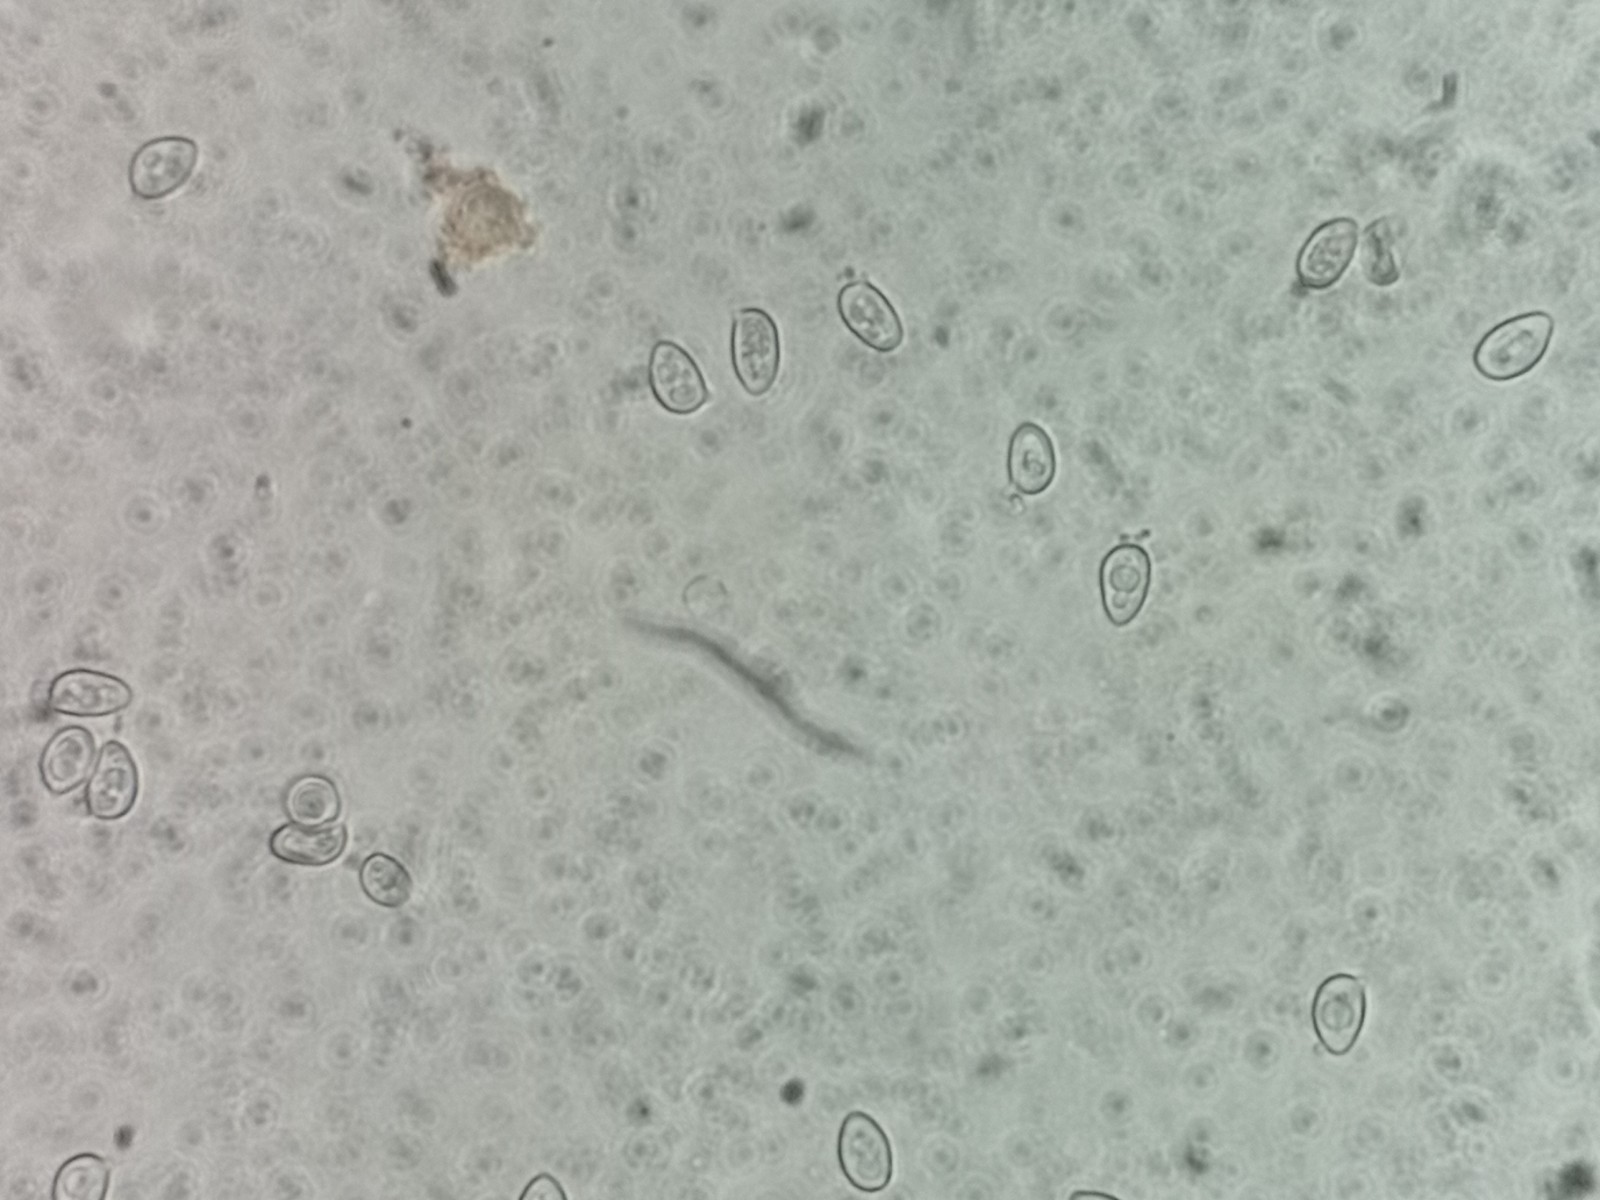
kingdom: Fungi
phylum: Basidiomycota
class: Agaricomycetes
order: Agaricales
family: Agaricaceae
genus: Leucoagaricus
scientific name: Leucoagaricus crystallifer
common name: krystal-silkehat
